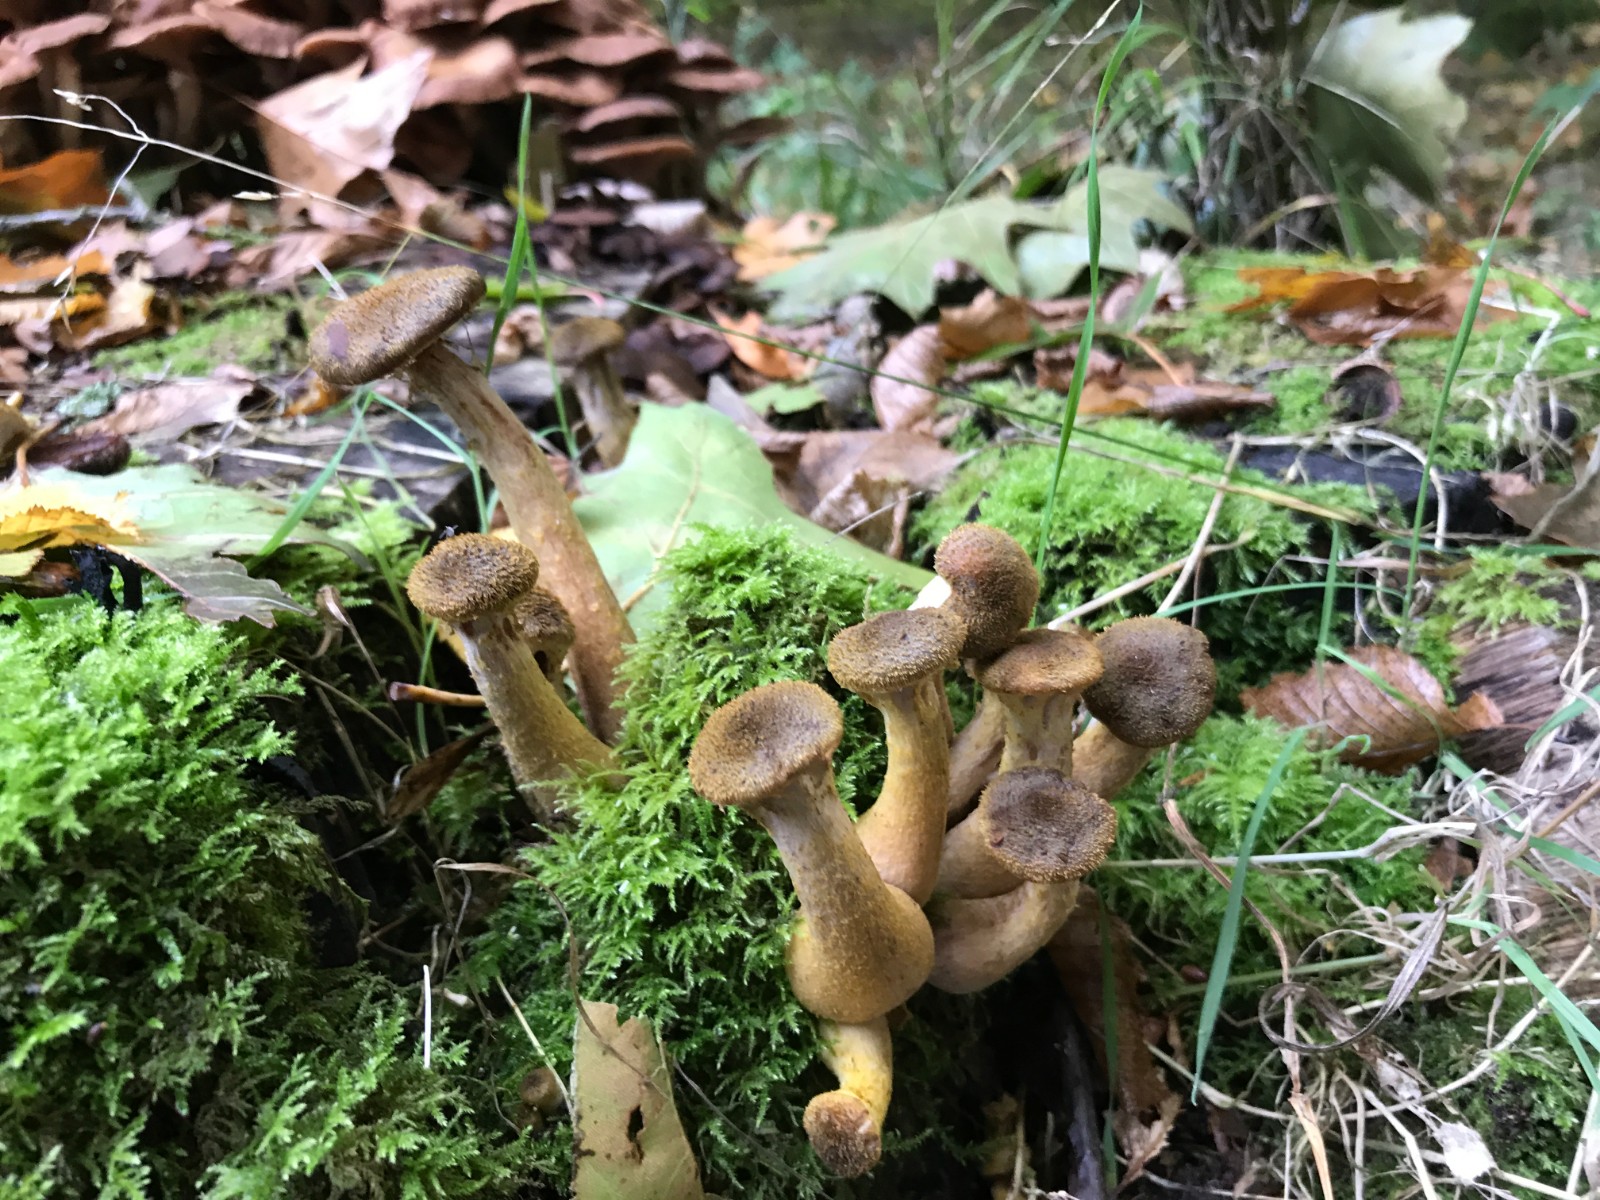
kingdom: Fungi
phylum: Basidiomycota
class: Agaricomycetes
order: Agaricales
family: Physalacriaceae
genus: Armillaria
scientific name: Armillaria lutea
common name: køllestokket honningsvamp
